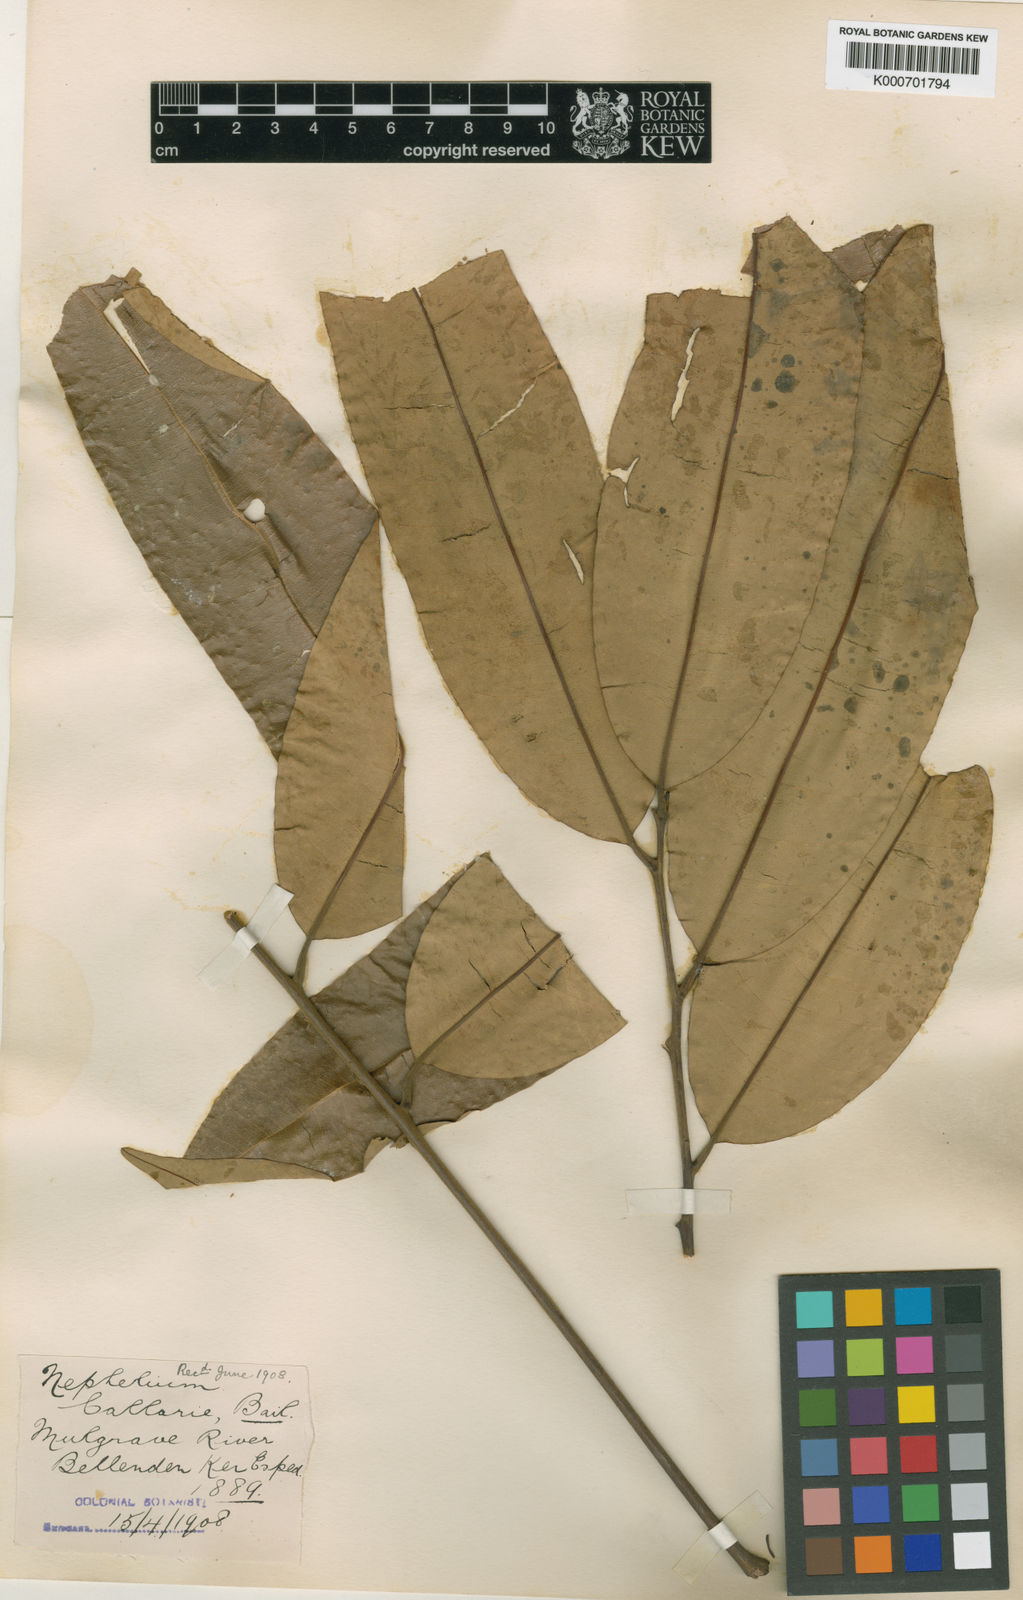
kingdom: Plantae
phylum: Tracheophyta
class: Magnoliopsida
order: Sapindales
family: Sapindaceae
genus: Castanospora
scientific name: Castanospora alphandii
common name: Brown-tamarind
